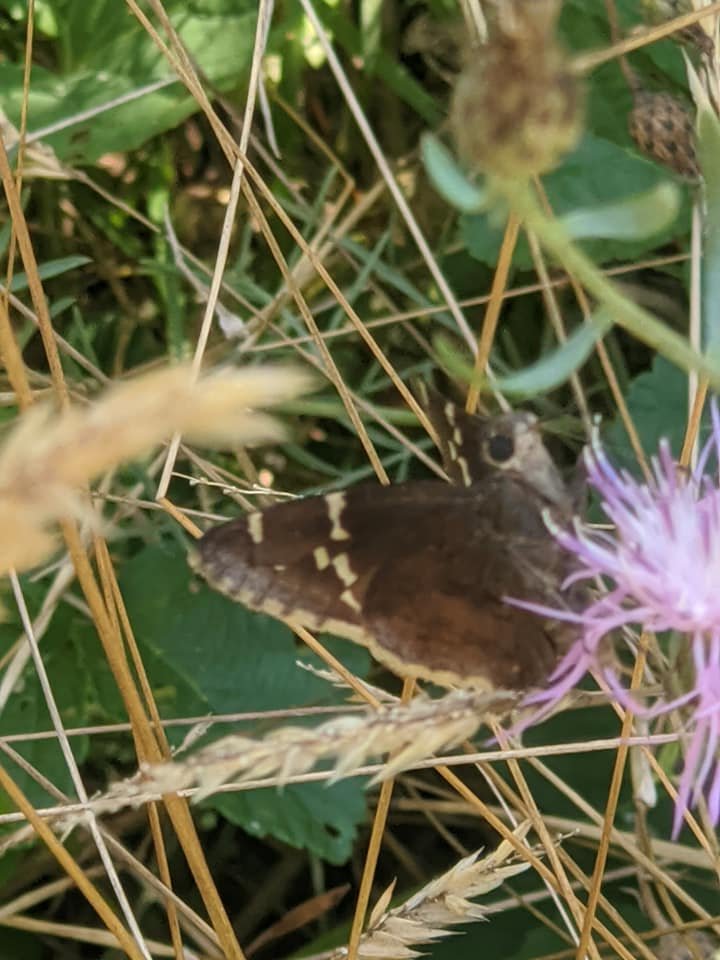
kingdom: Animalia
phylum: Arthropoda
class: Insecta
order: Lepidoptera
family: Hesperiidae
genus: Autochton
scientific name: Autochton
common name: Southern Cloudywing
